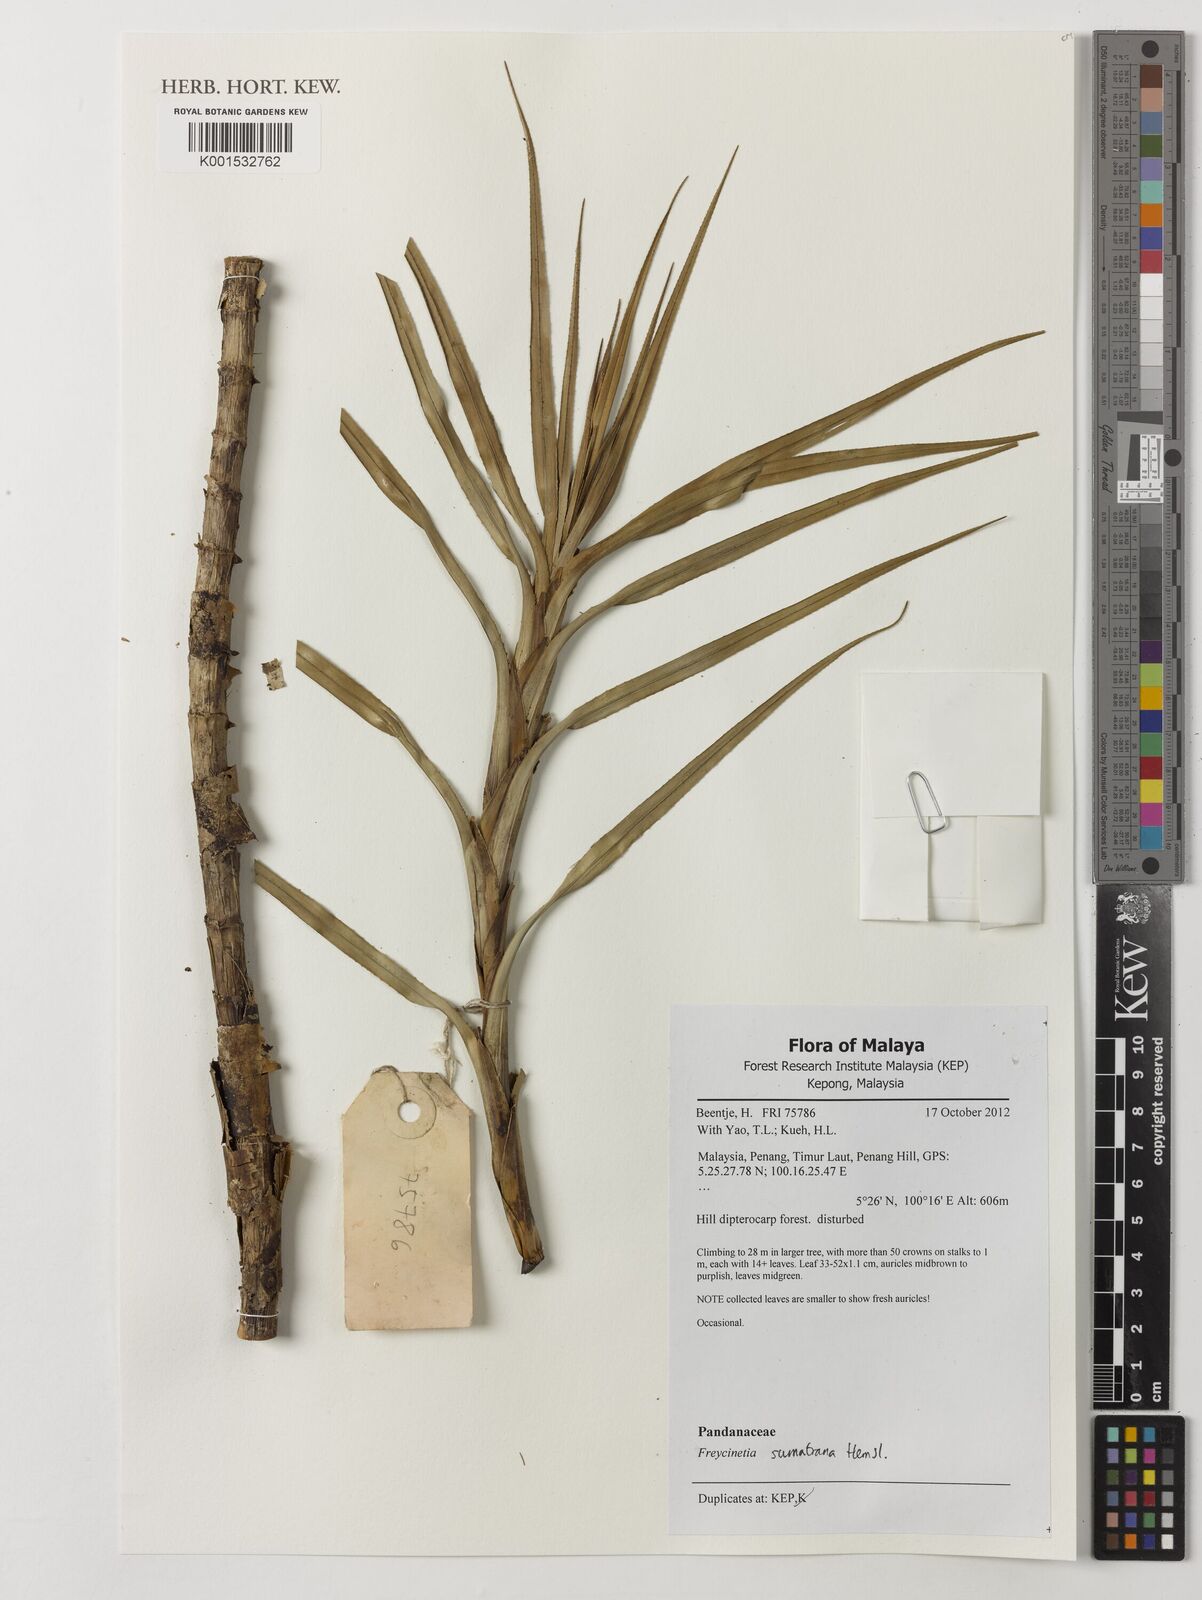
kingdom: Plantae
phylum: Tracheophyta
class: Liliopsida
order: Pandanales
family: Pandanaceae
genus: Freycinetia
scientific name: Freycinetia sumatrana
